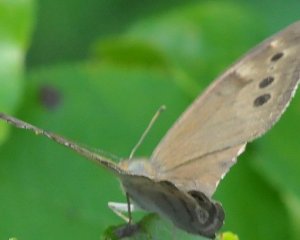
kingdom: Animalia
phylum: Arthropoda
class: Insecta
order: Lepidoptera
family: Nymphalidae
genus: Lethe
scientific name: Lethe anthedon
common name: Northern Pearly-Eye
